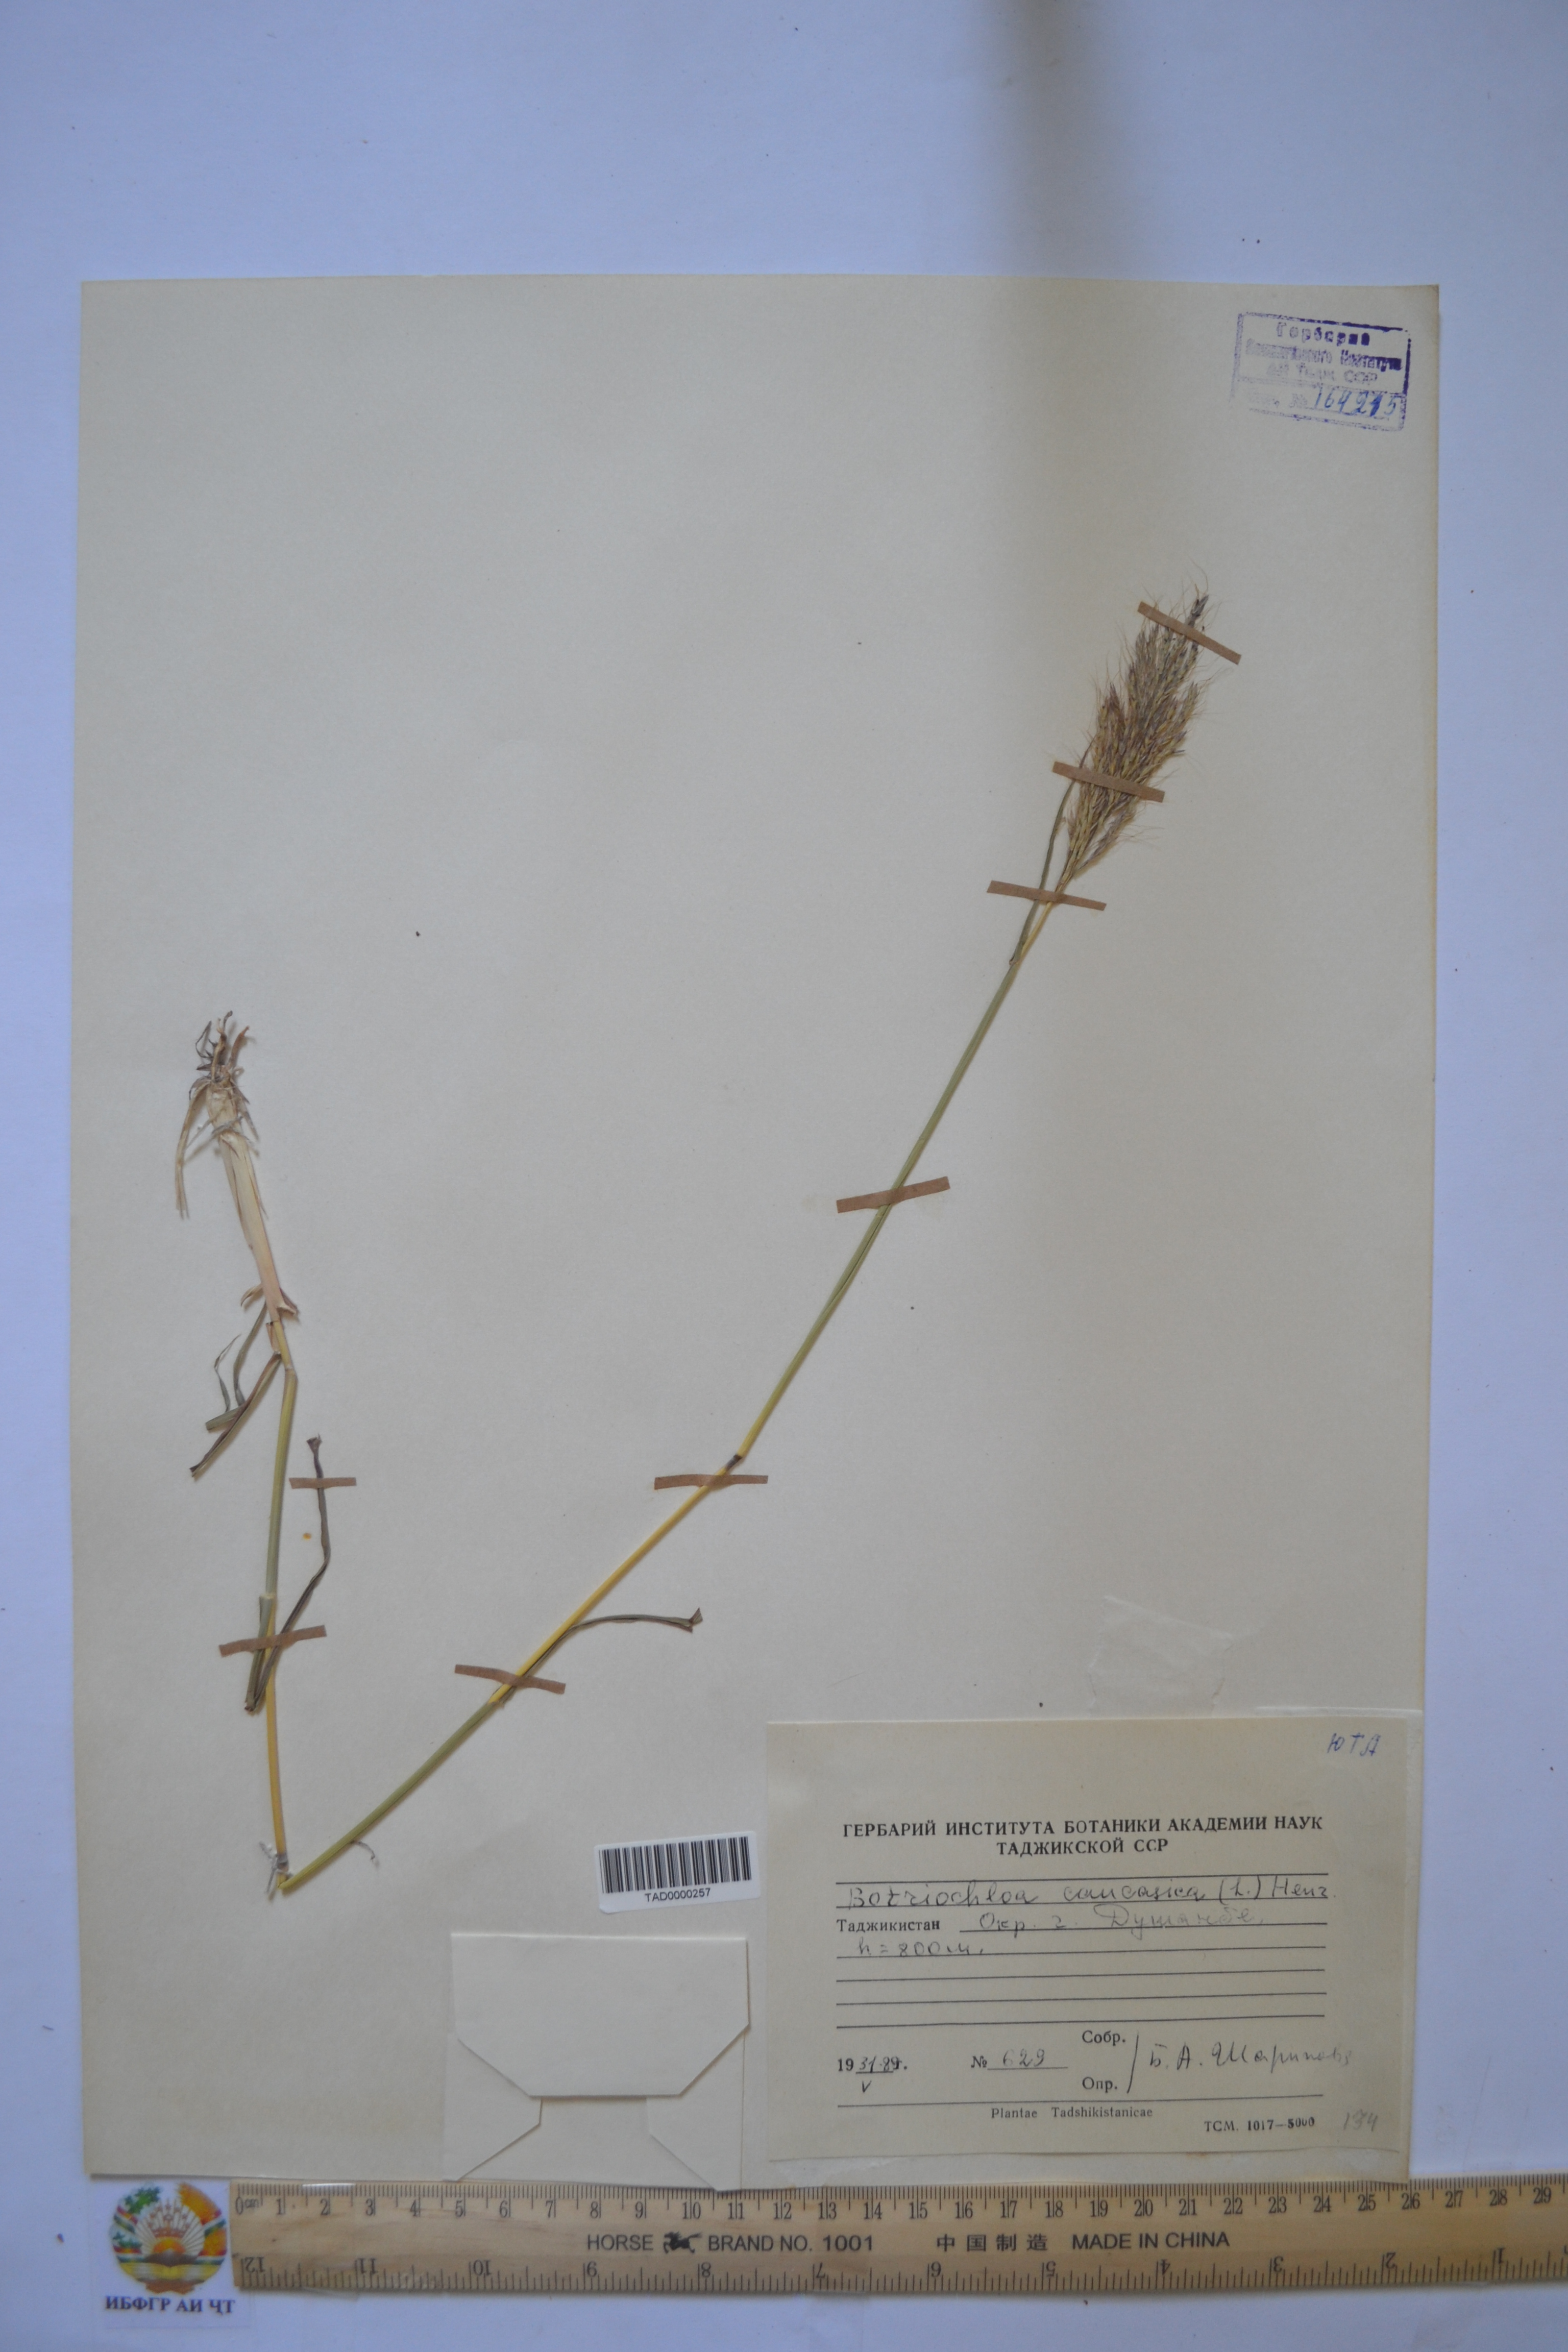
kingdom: Plantae
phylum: Tracheophyta
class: Liliopsida
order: Poales
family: Poaceae
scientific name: Poaceae
